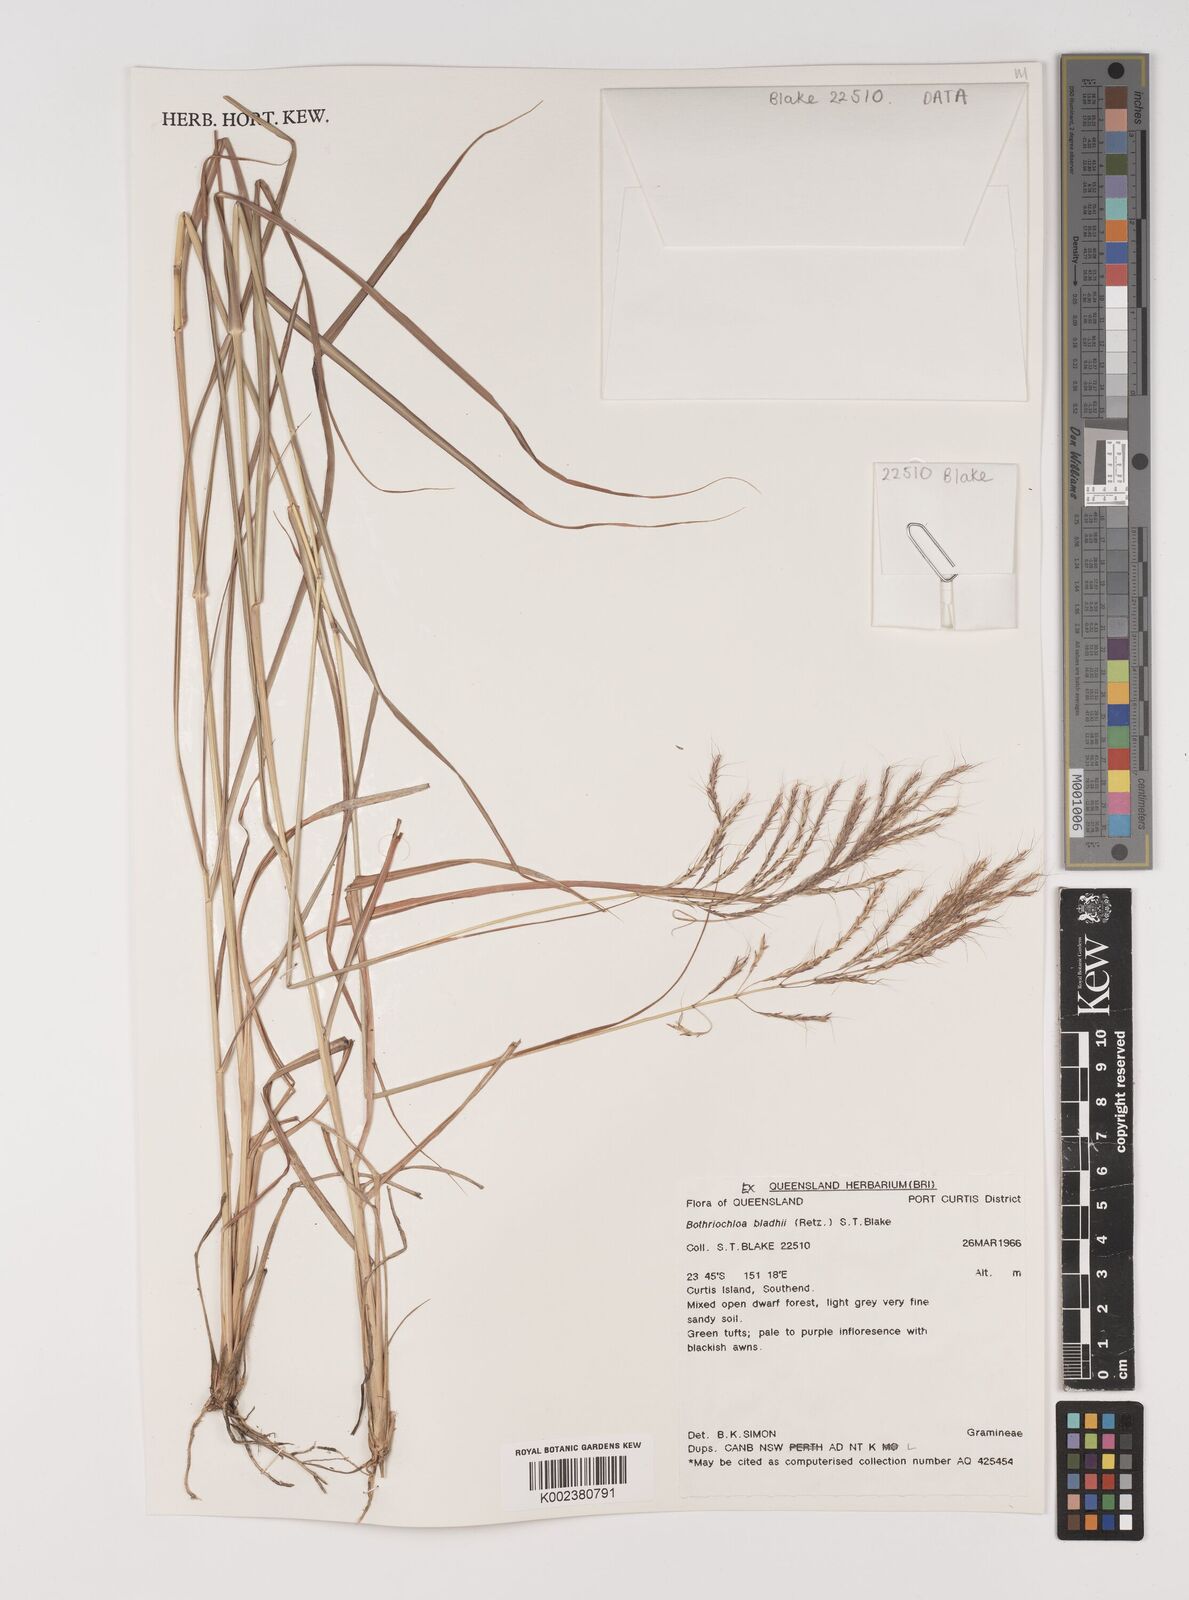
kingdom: Plantae
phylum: Tracheophyta
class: Liliopsida
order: Poales
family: Poaceae
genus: Bothriochloa
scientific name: Bothriochloa bladhii
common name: Caucasian bluestem
